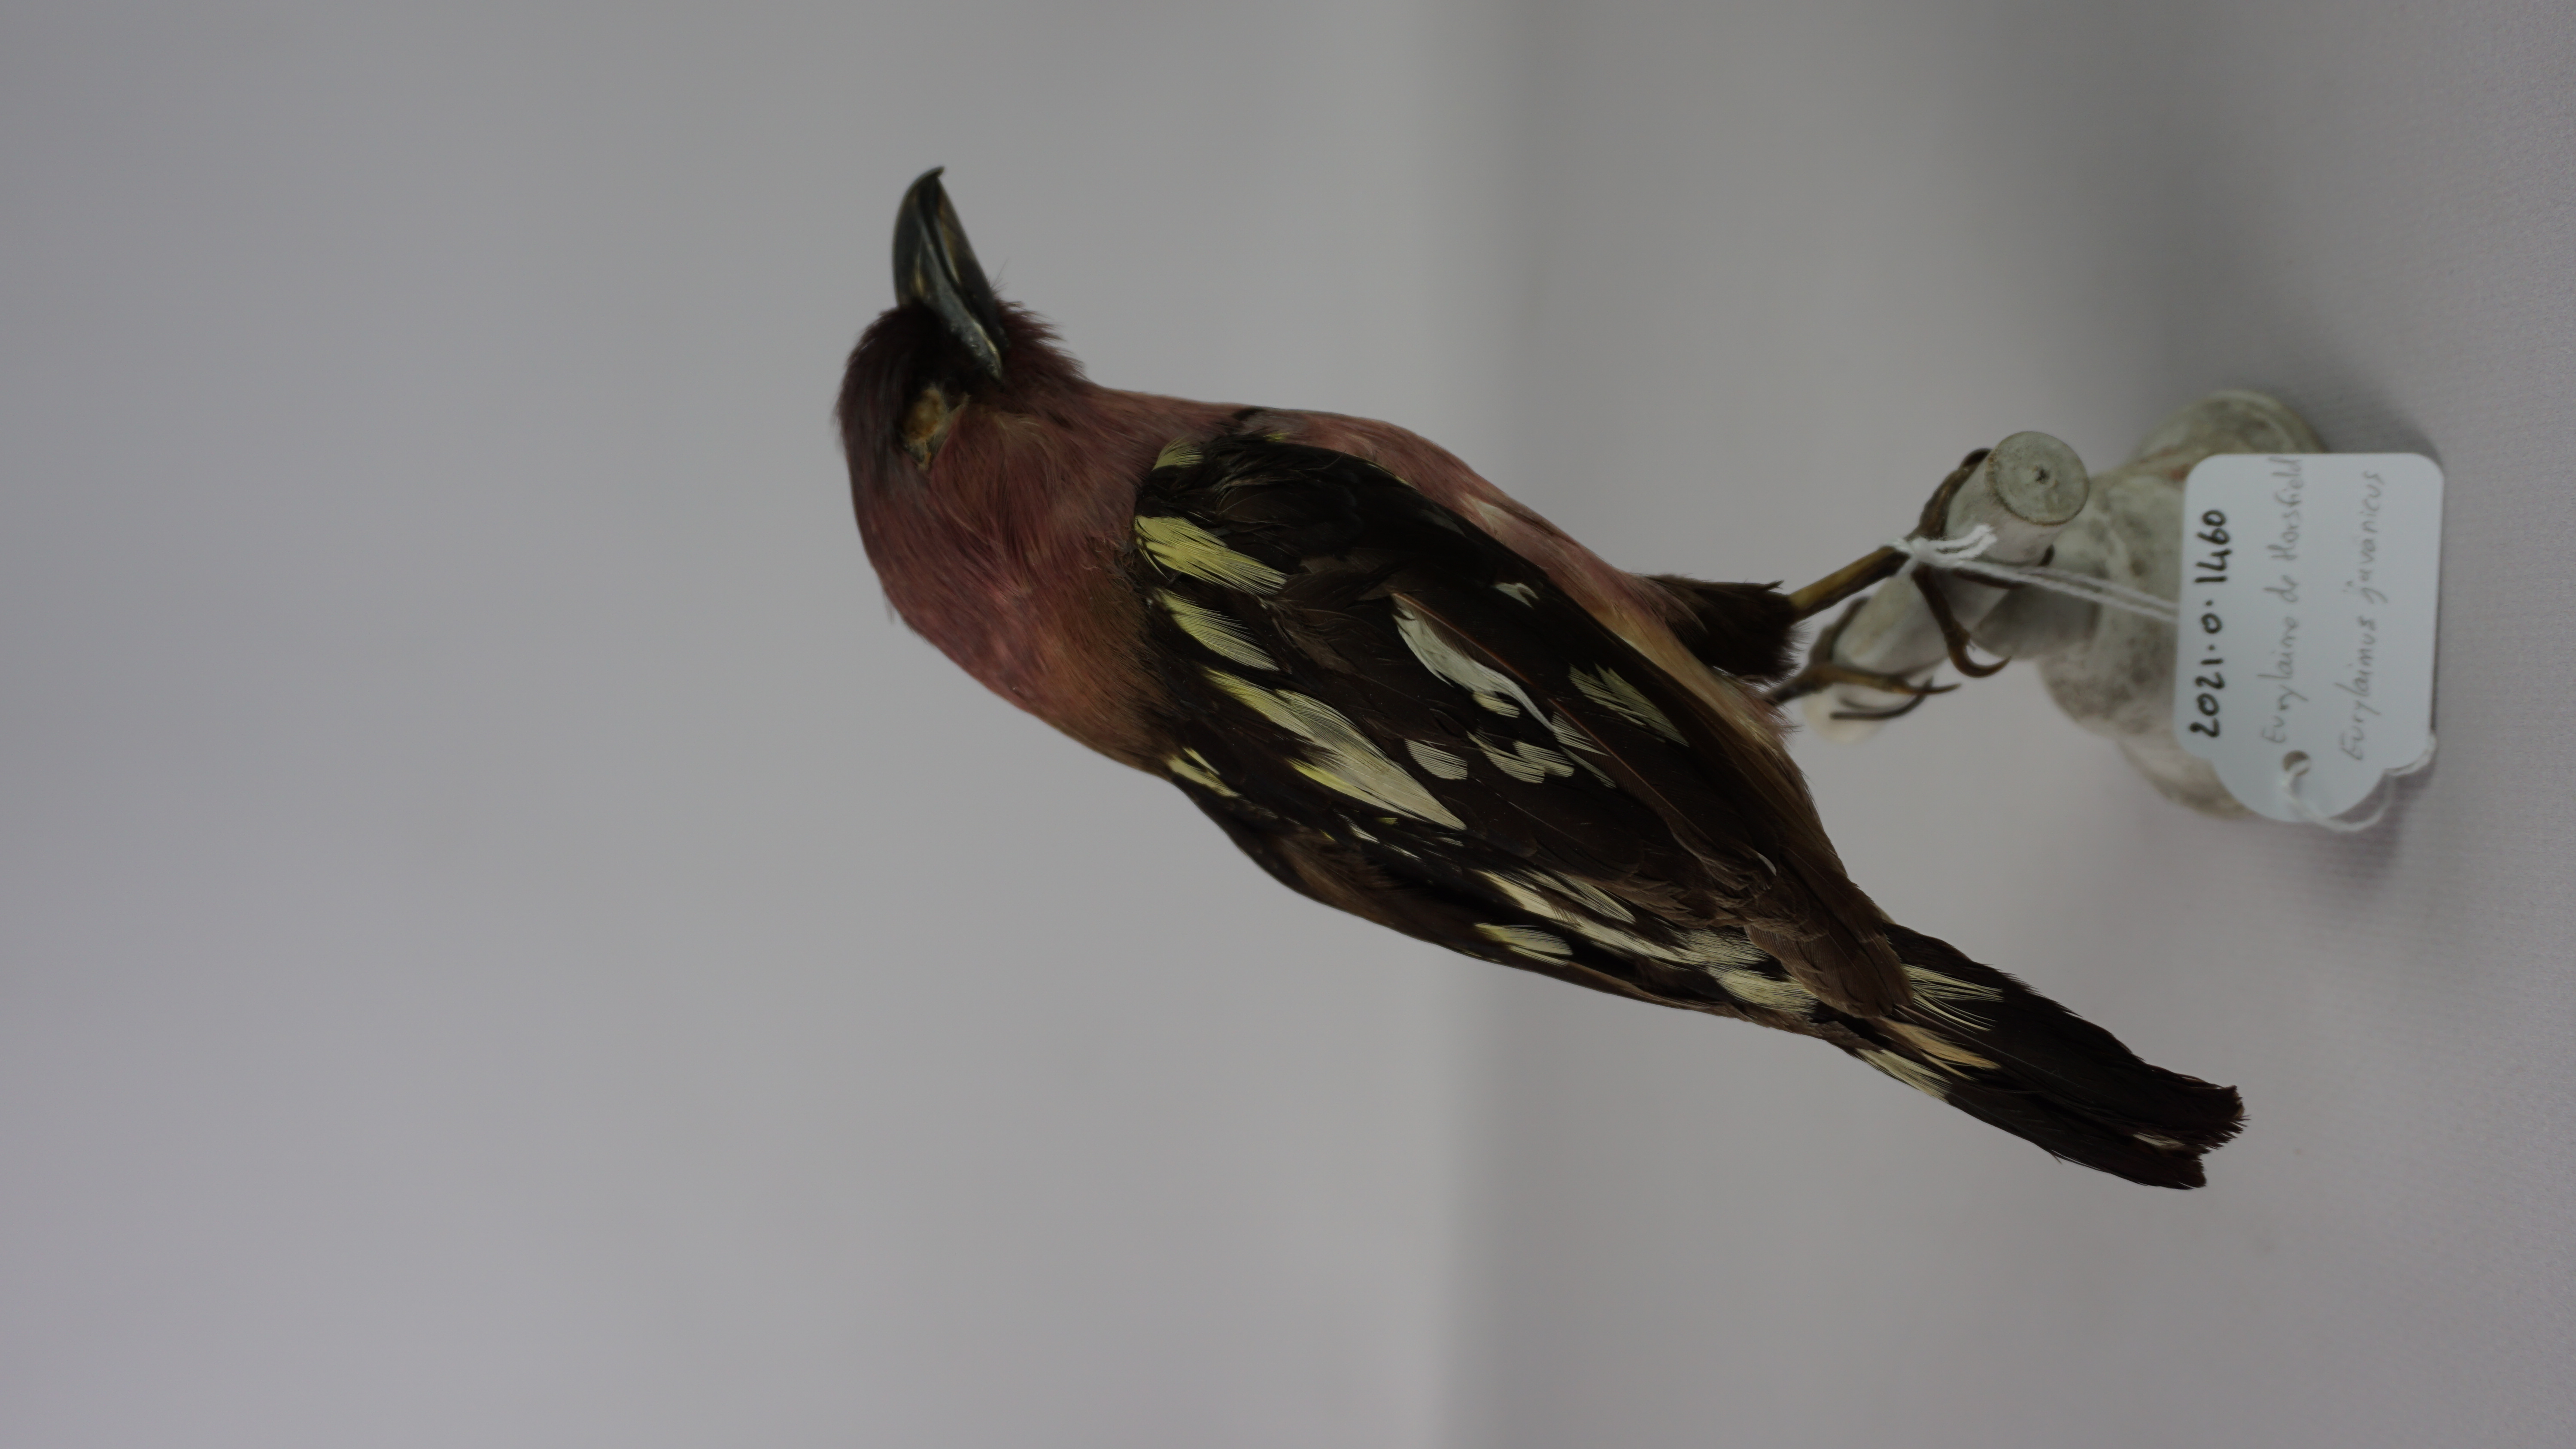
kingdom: Animalia
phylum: Chordata
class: Aves
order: Passeriformes
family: Eurylaimidae
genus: Eurylaimus
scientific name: Eurylaimus javanicus
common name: Banded broadbill
